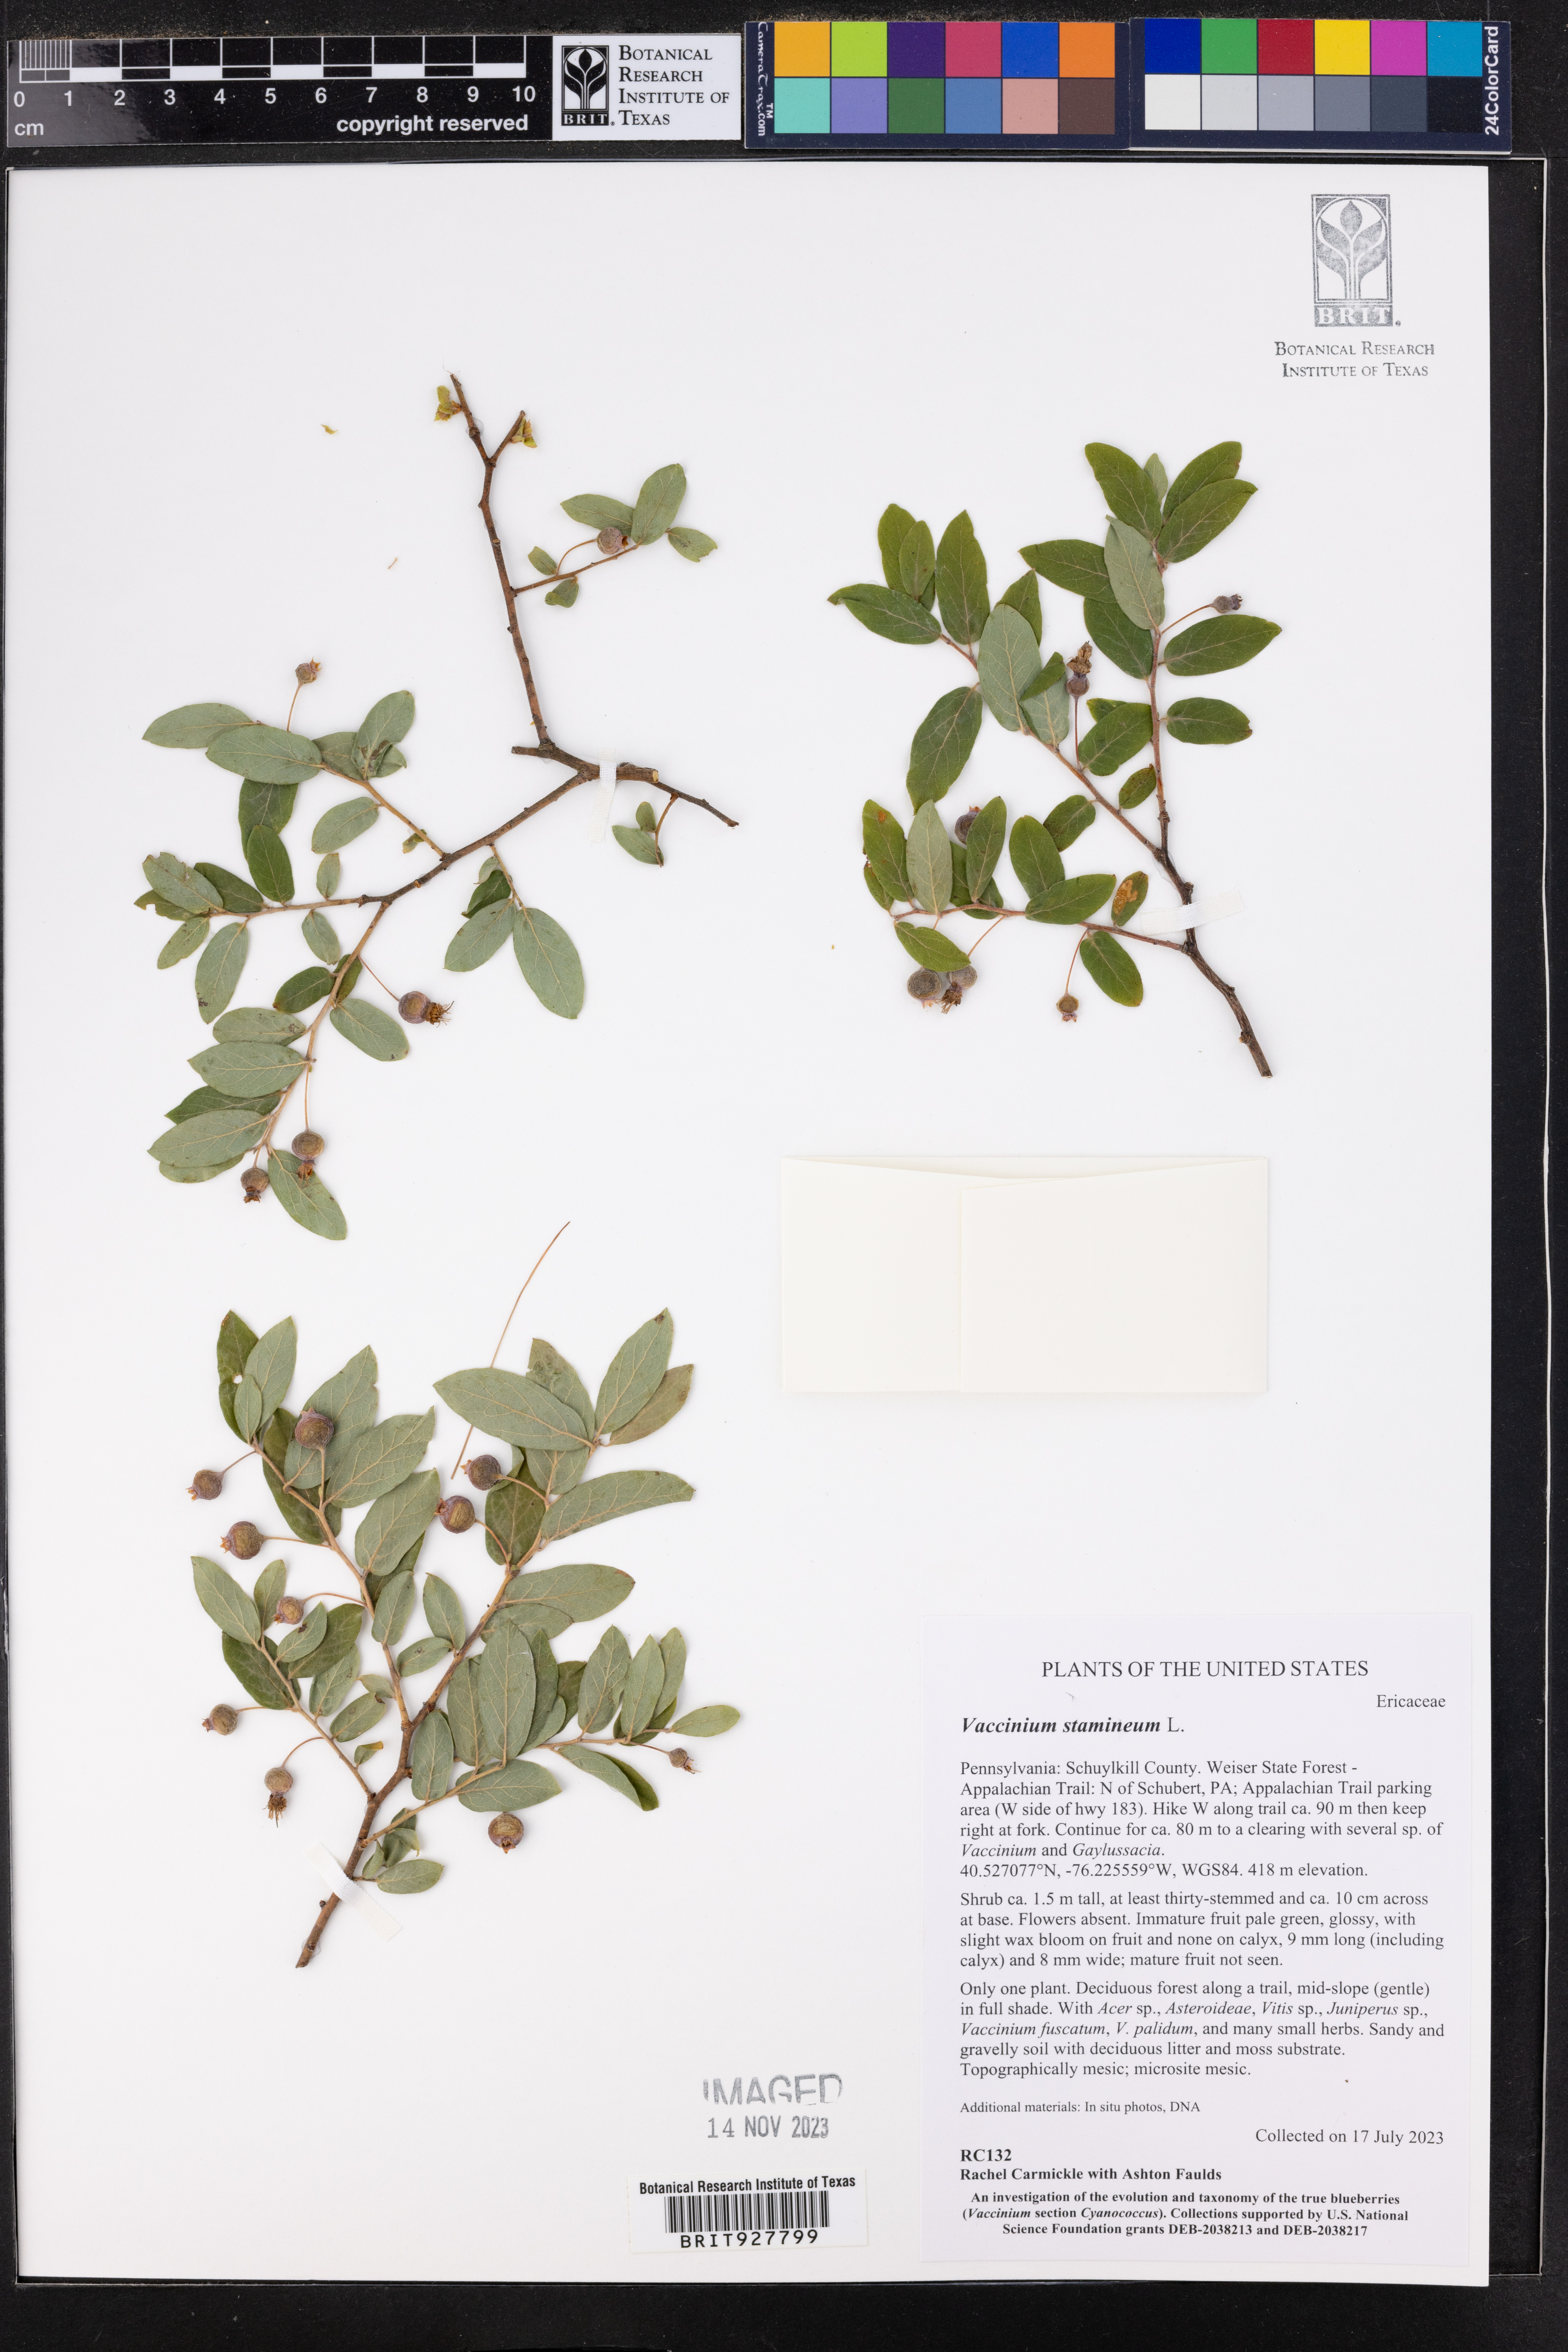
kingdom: Plantae
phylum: Tracheophyta
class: Magnoliopsida
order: Ericales
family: Ericaceae
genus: Vaccinium
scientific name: Vaccinium stamineum
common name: Deerberry
